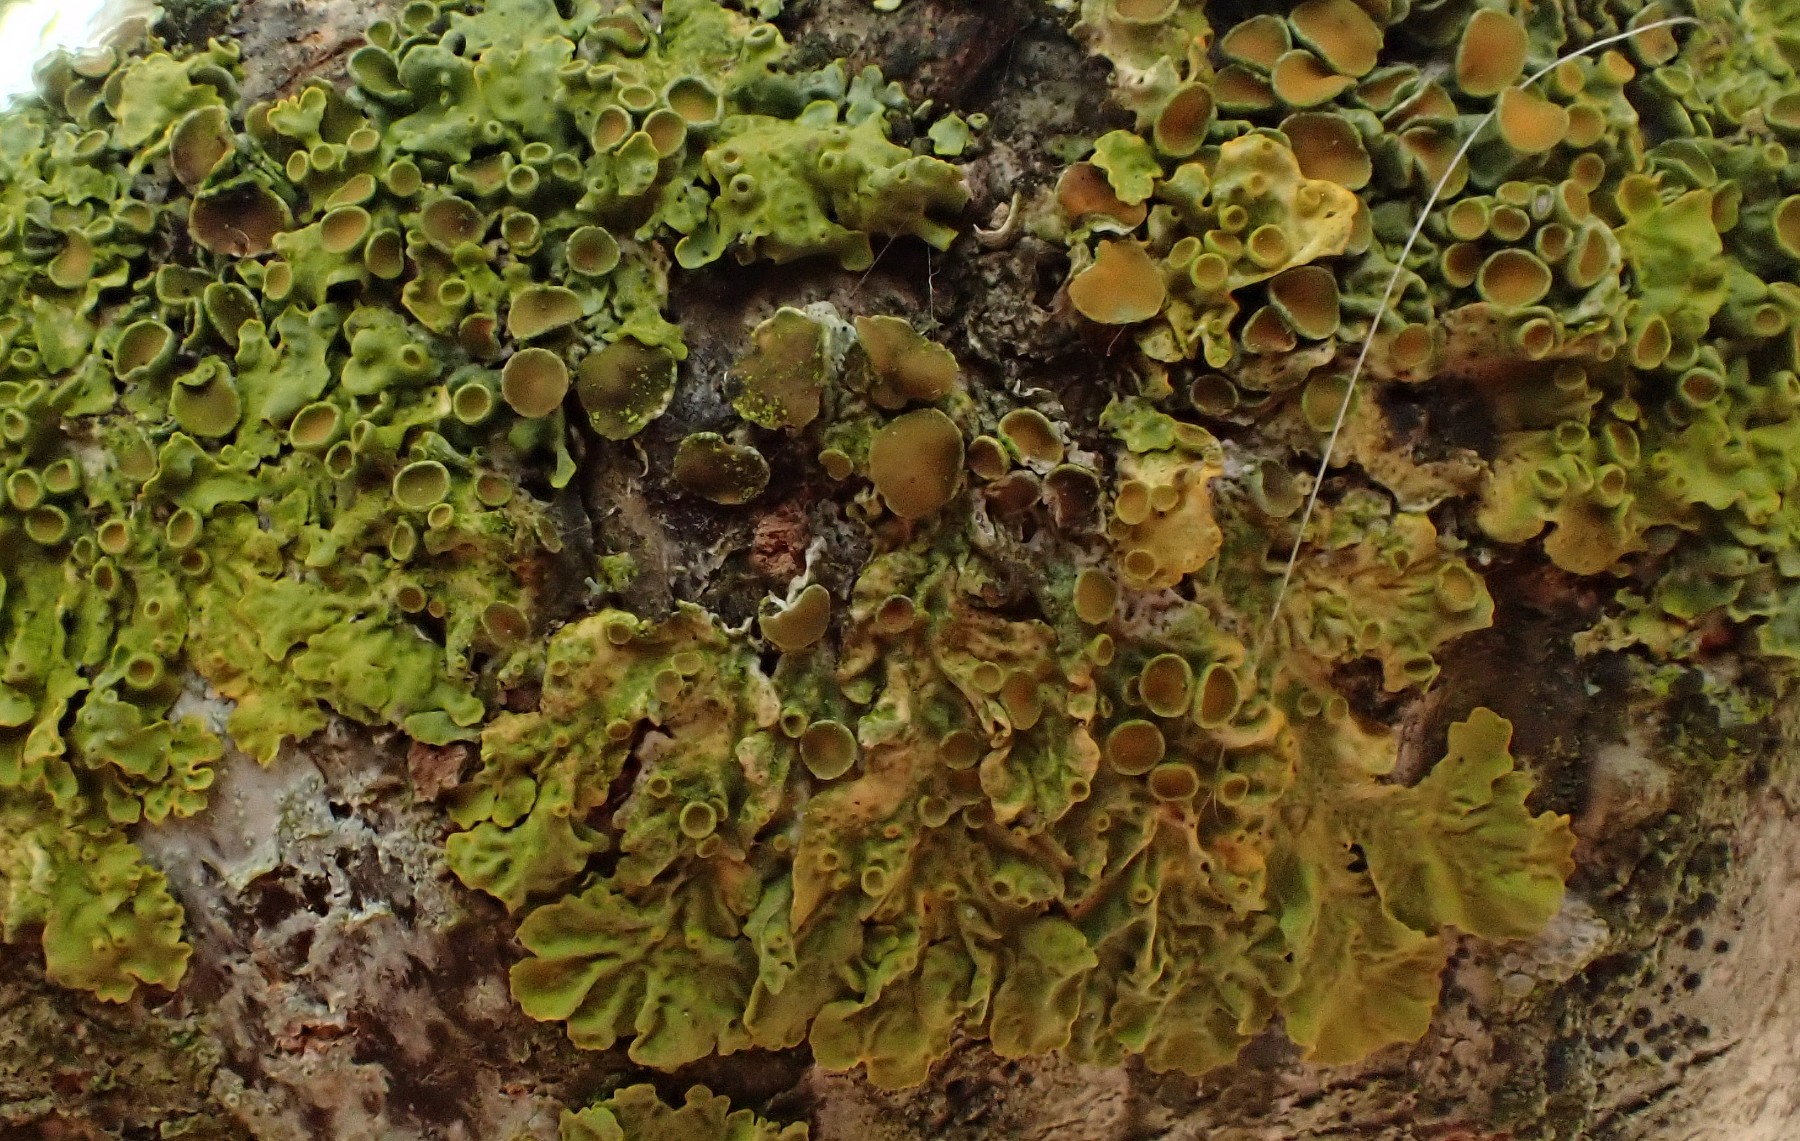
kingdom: Fungi
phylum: Ascomycota
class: Dothideomycetes
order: Mycosphaerellales
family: Teratosphaeriaceae
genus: Xanthoriicola
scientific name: Xanthoriicola physciae
